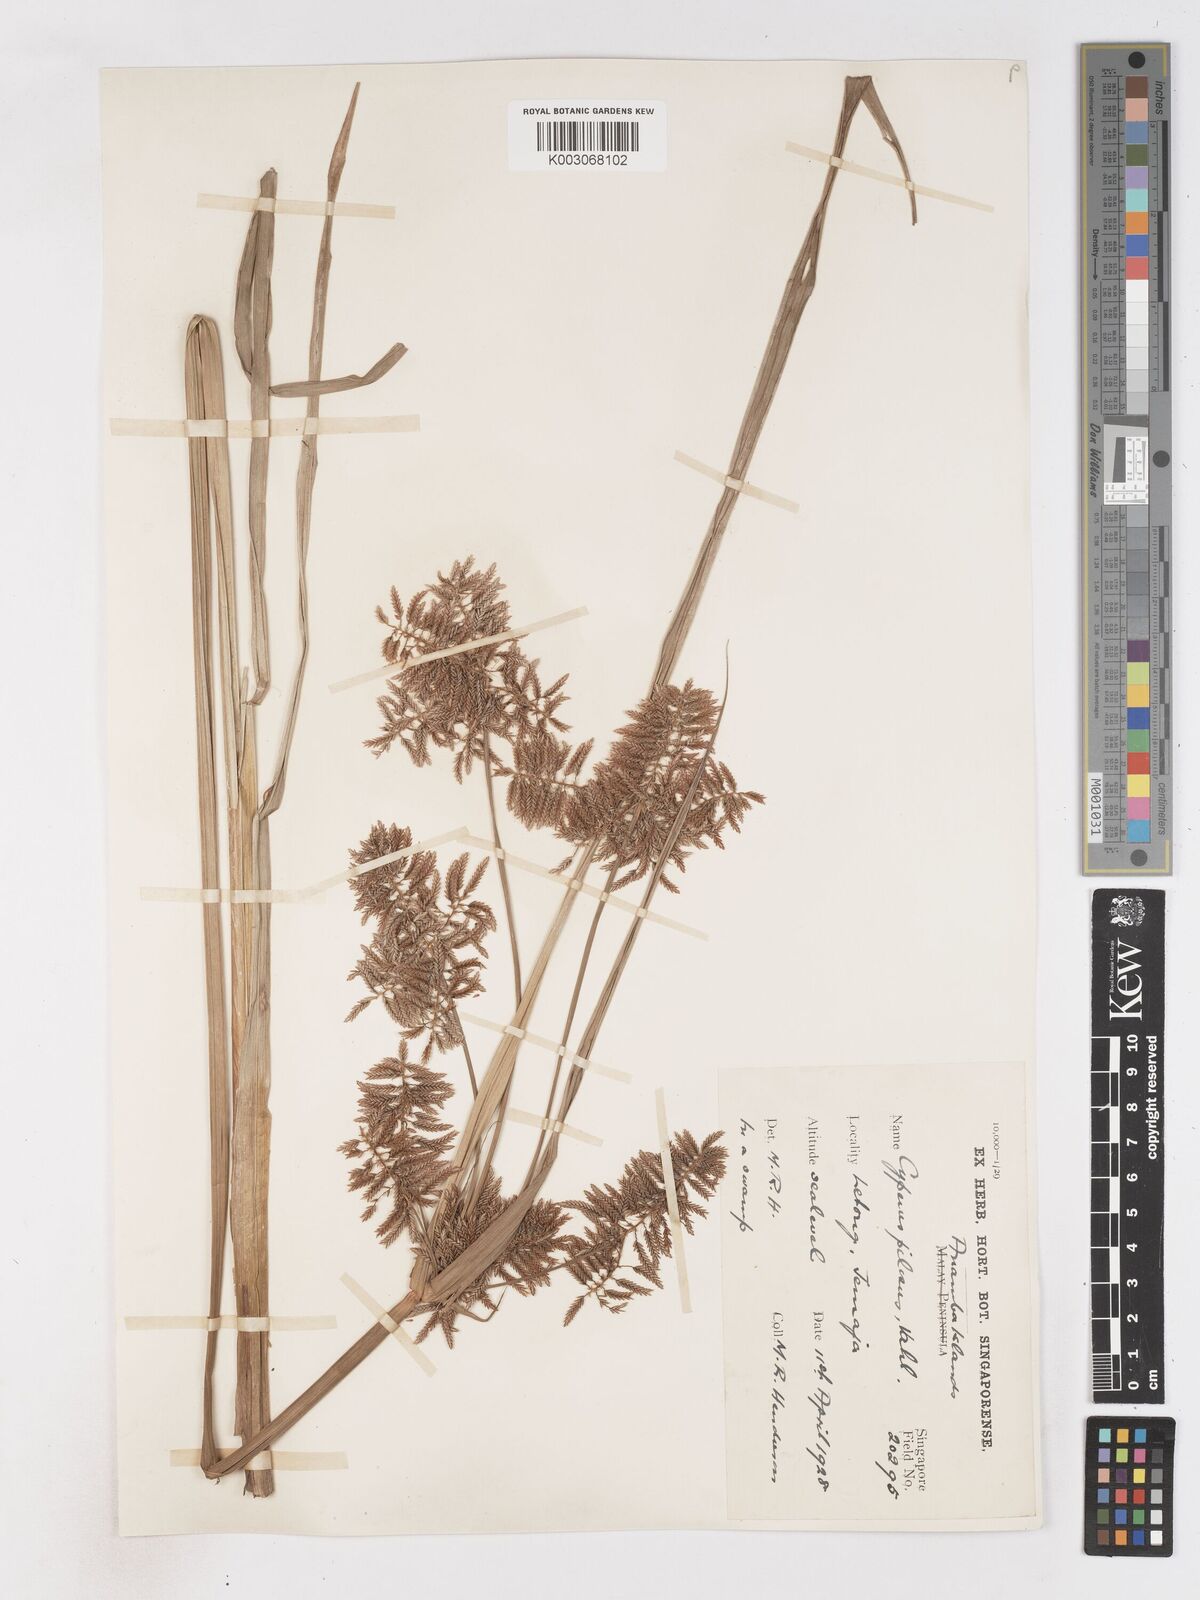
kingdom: Plantae
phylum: Tracheophyta
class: Liliopsida
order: Poales
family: Cyperaceae
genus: Cyperus
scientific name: Cyperus pilosus
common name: Fuzzy flatsedge
